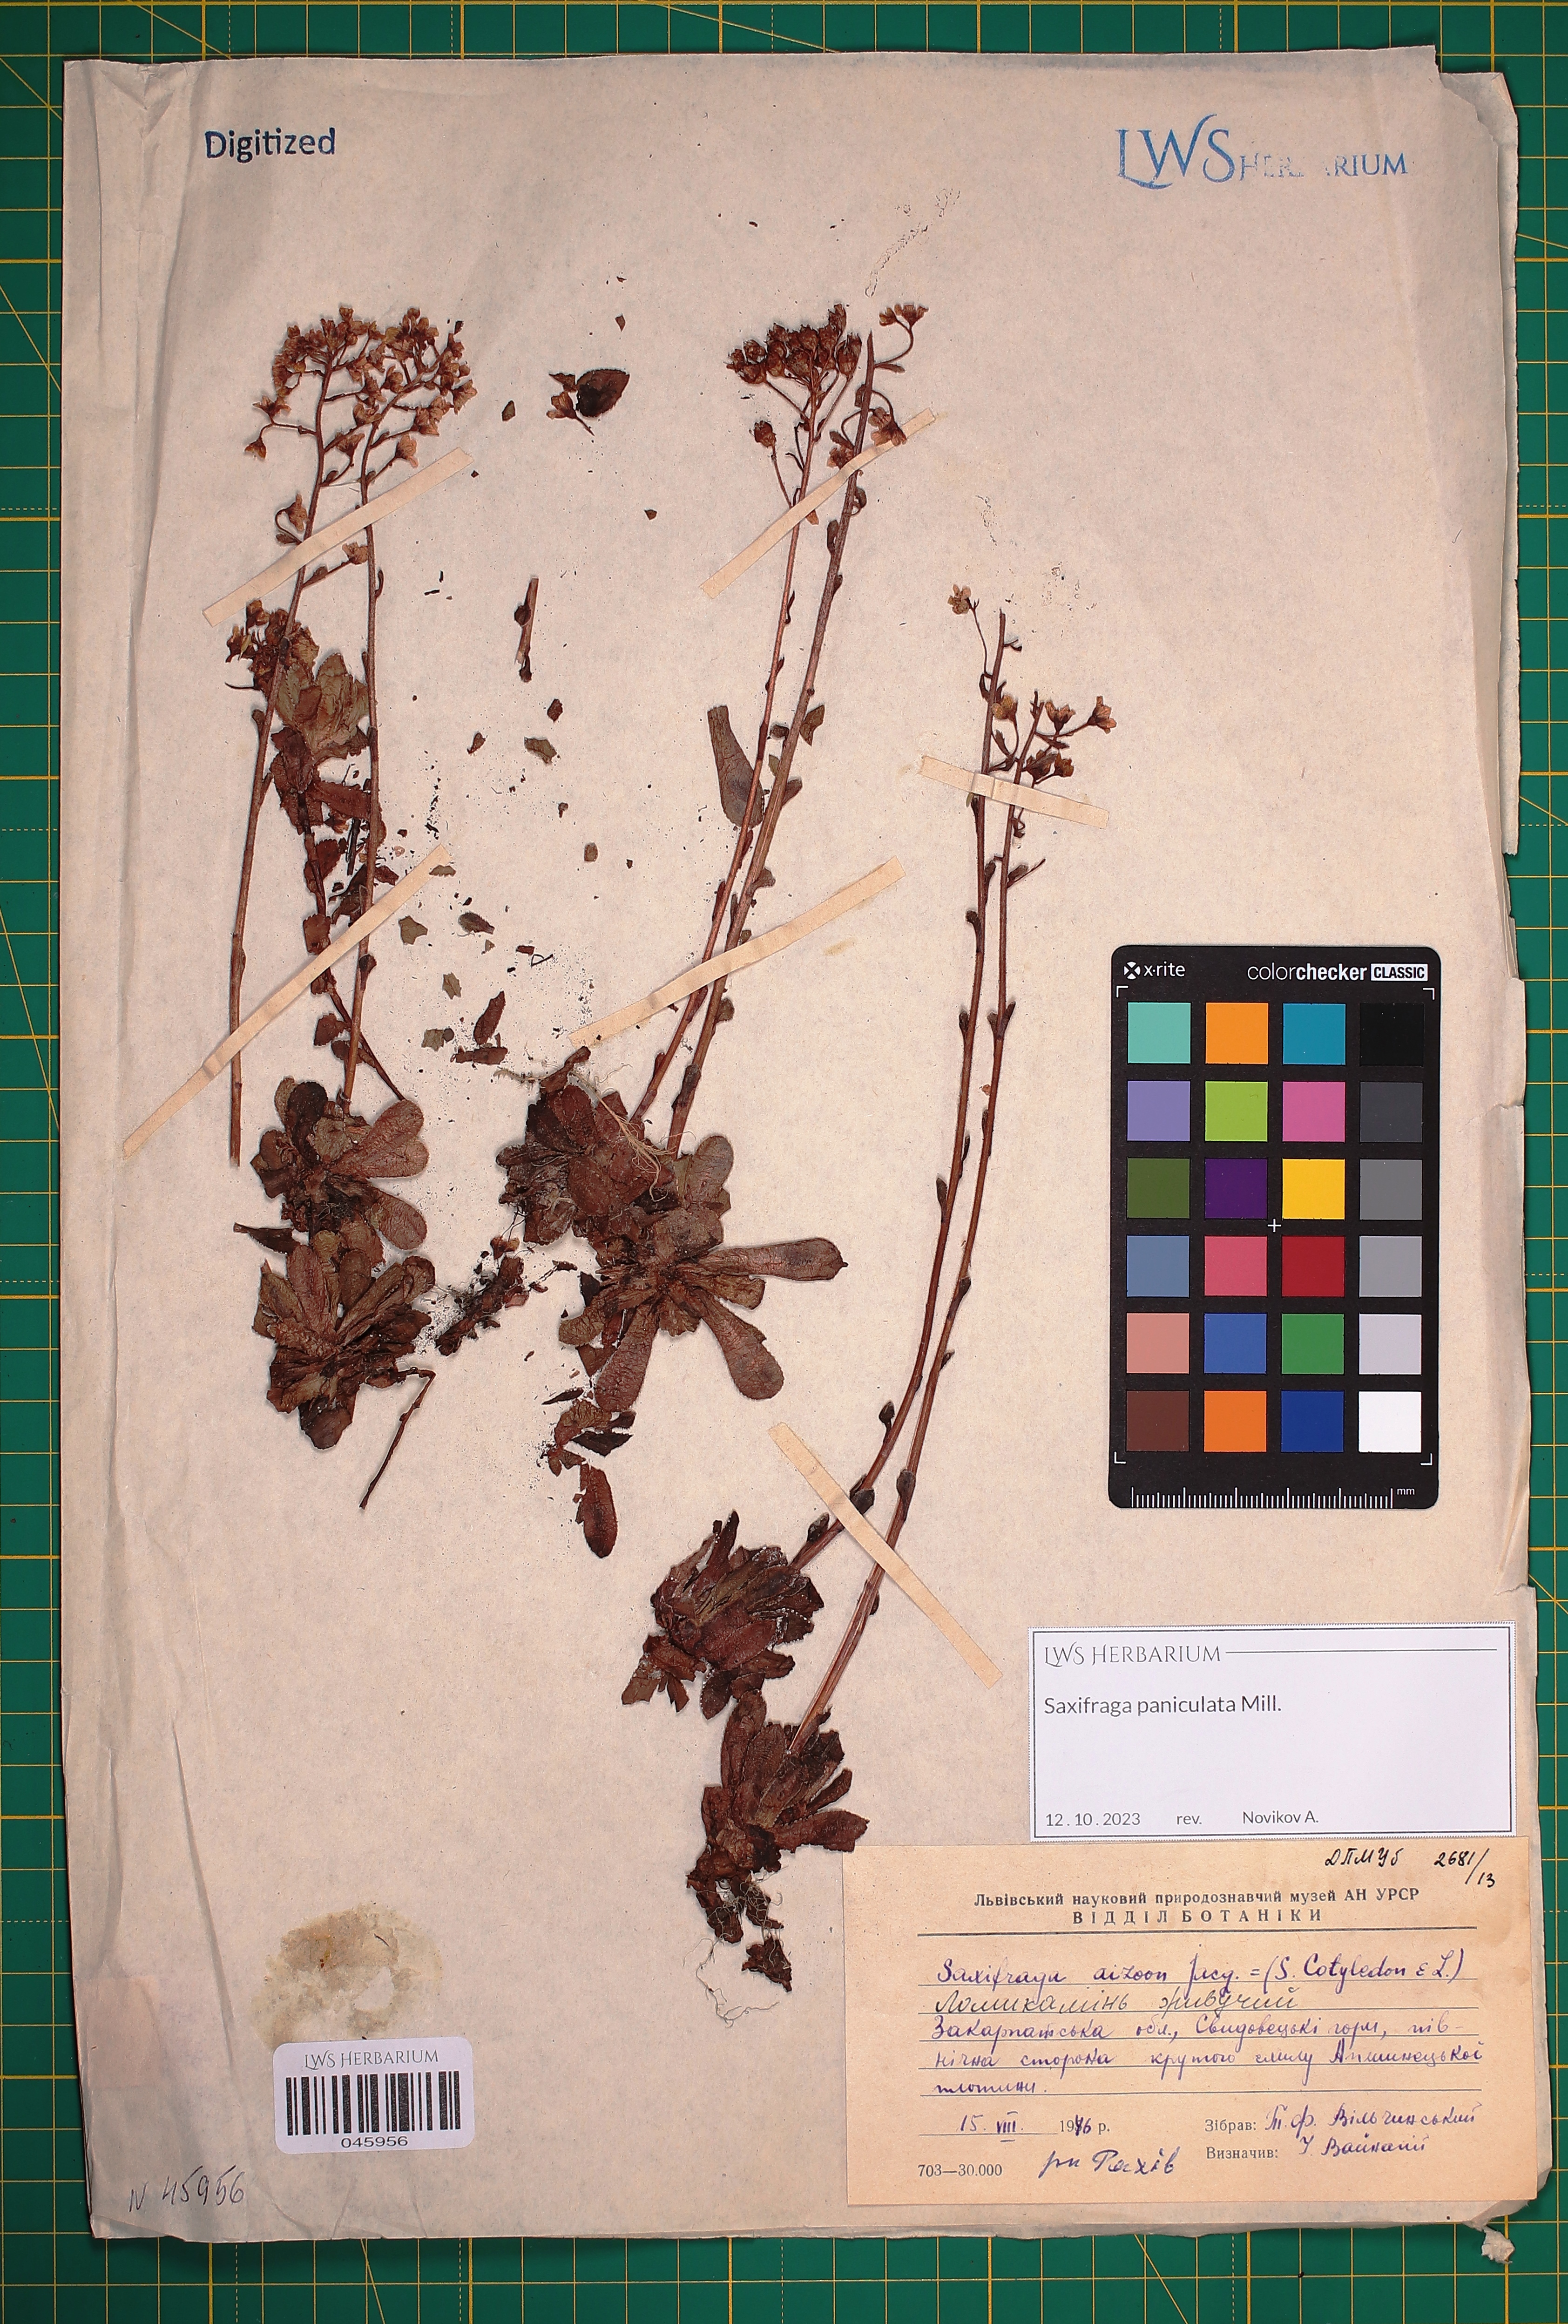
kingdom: Plantae
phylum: Tracheophyta
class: Magnoliopsida
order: Saxifragales
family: Saxifragaceae
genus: Saxifraga
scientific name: Saxifraga paniculata
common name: Livelong saxifrage
